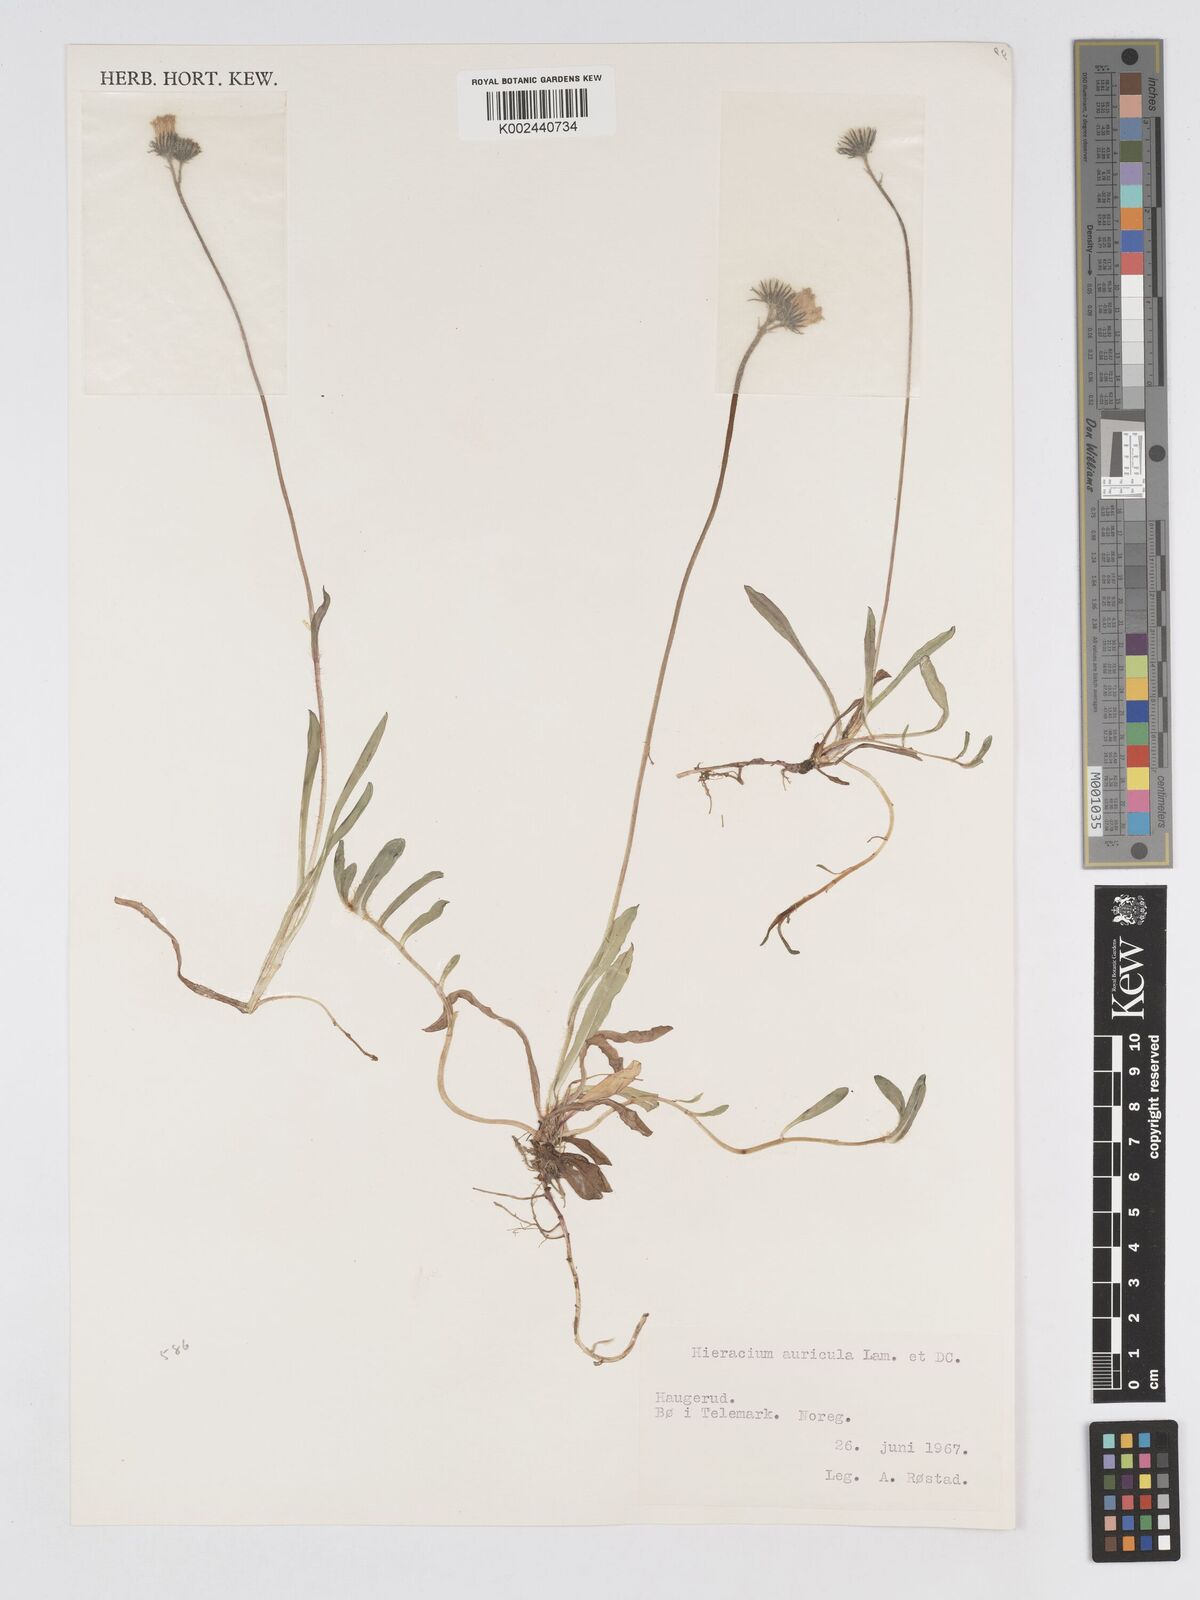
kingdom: Plantae
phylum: Tracheophyta
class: Magnoliopsida
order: Asterales
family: Asteraceae
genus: Pilosella
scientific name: Pilosella floribunda
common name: Glaucous hawkweed
